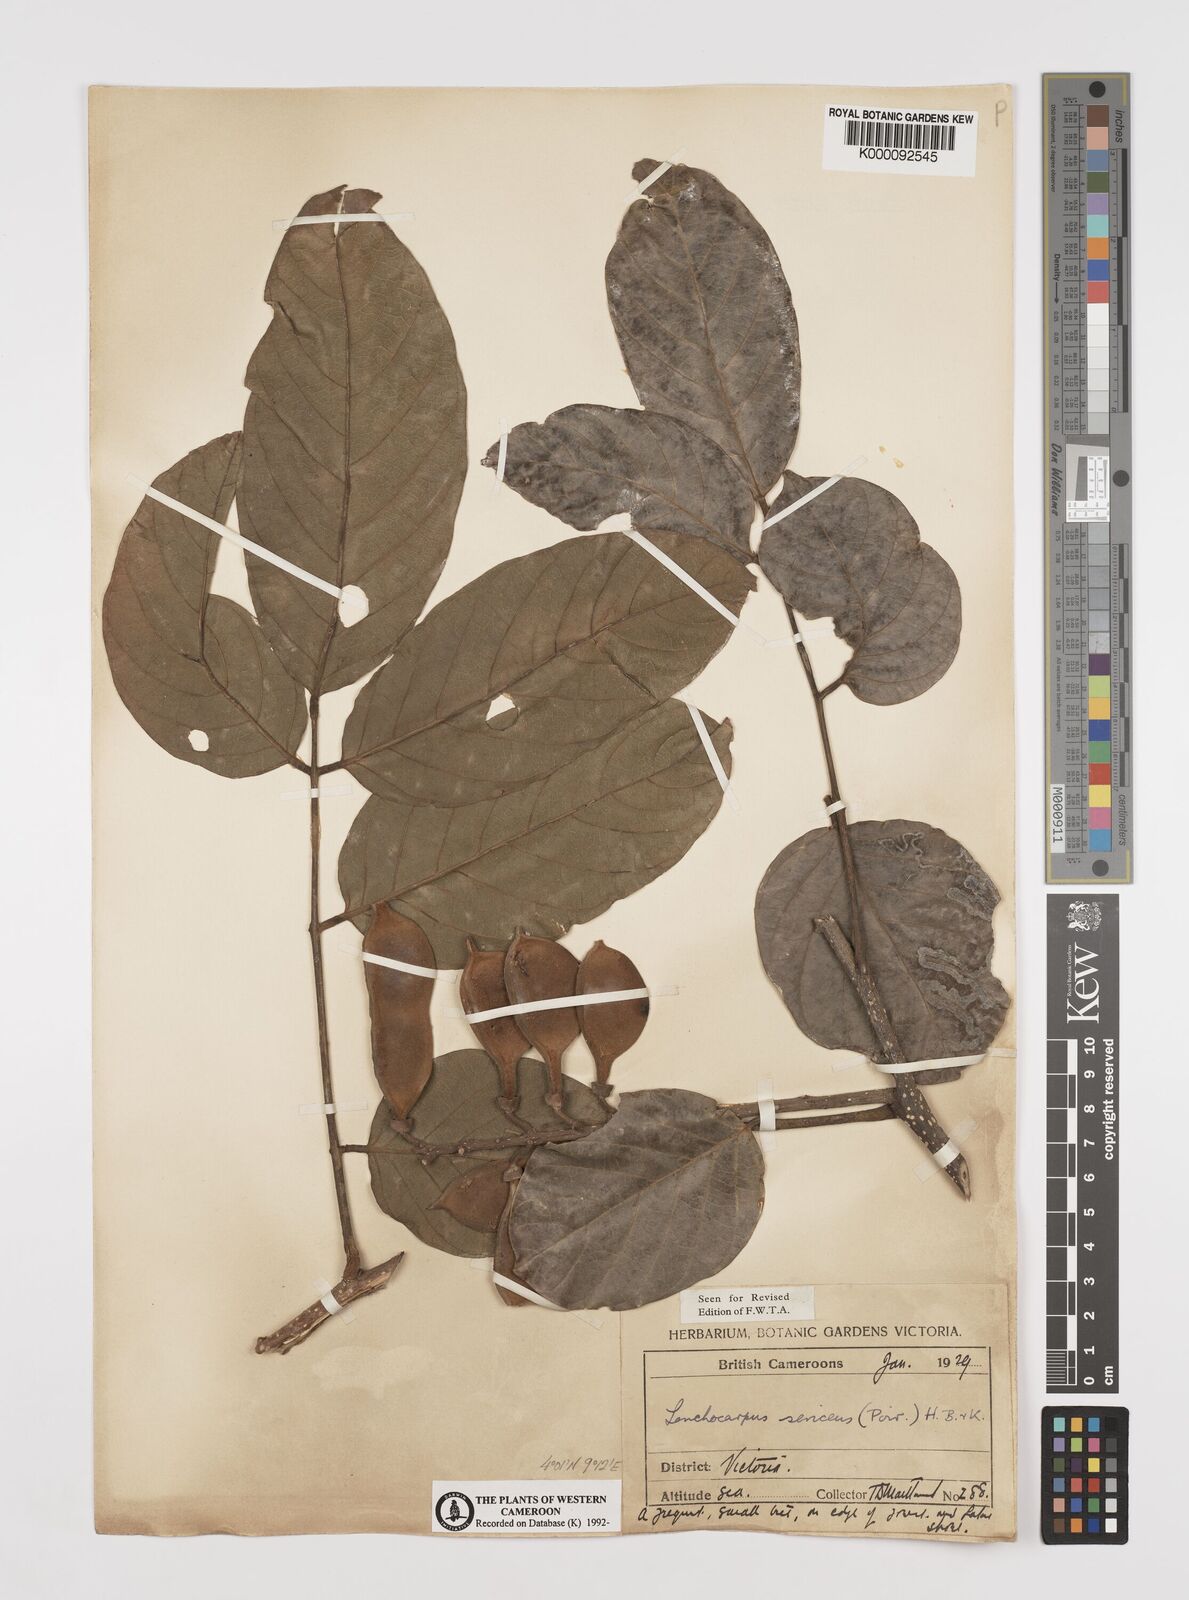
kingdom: Plantae
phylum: Tracheophyta
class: Magnoliopsida
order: Fabales
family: Fabaceae
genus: Lonchocarpus
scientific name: Lonchocarpus
